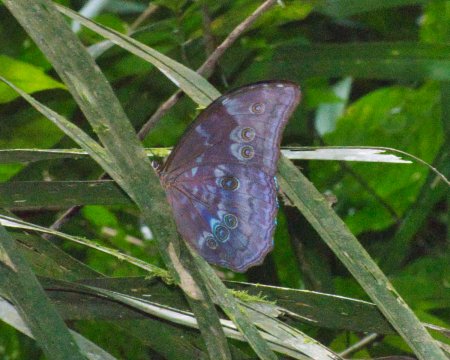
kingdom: Animalia
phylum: Arthropoda
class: Insecta
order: Lepidoptera
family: Nymphalidae
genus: Morpho
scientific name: Morpho menelaus
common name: Menelaus Morpho
